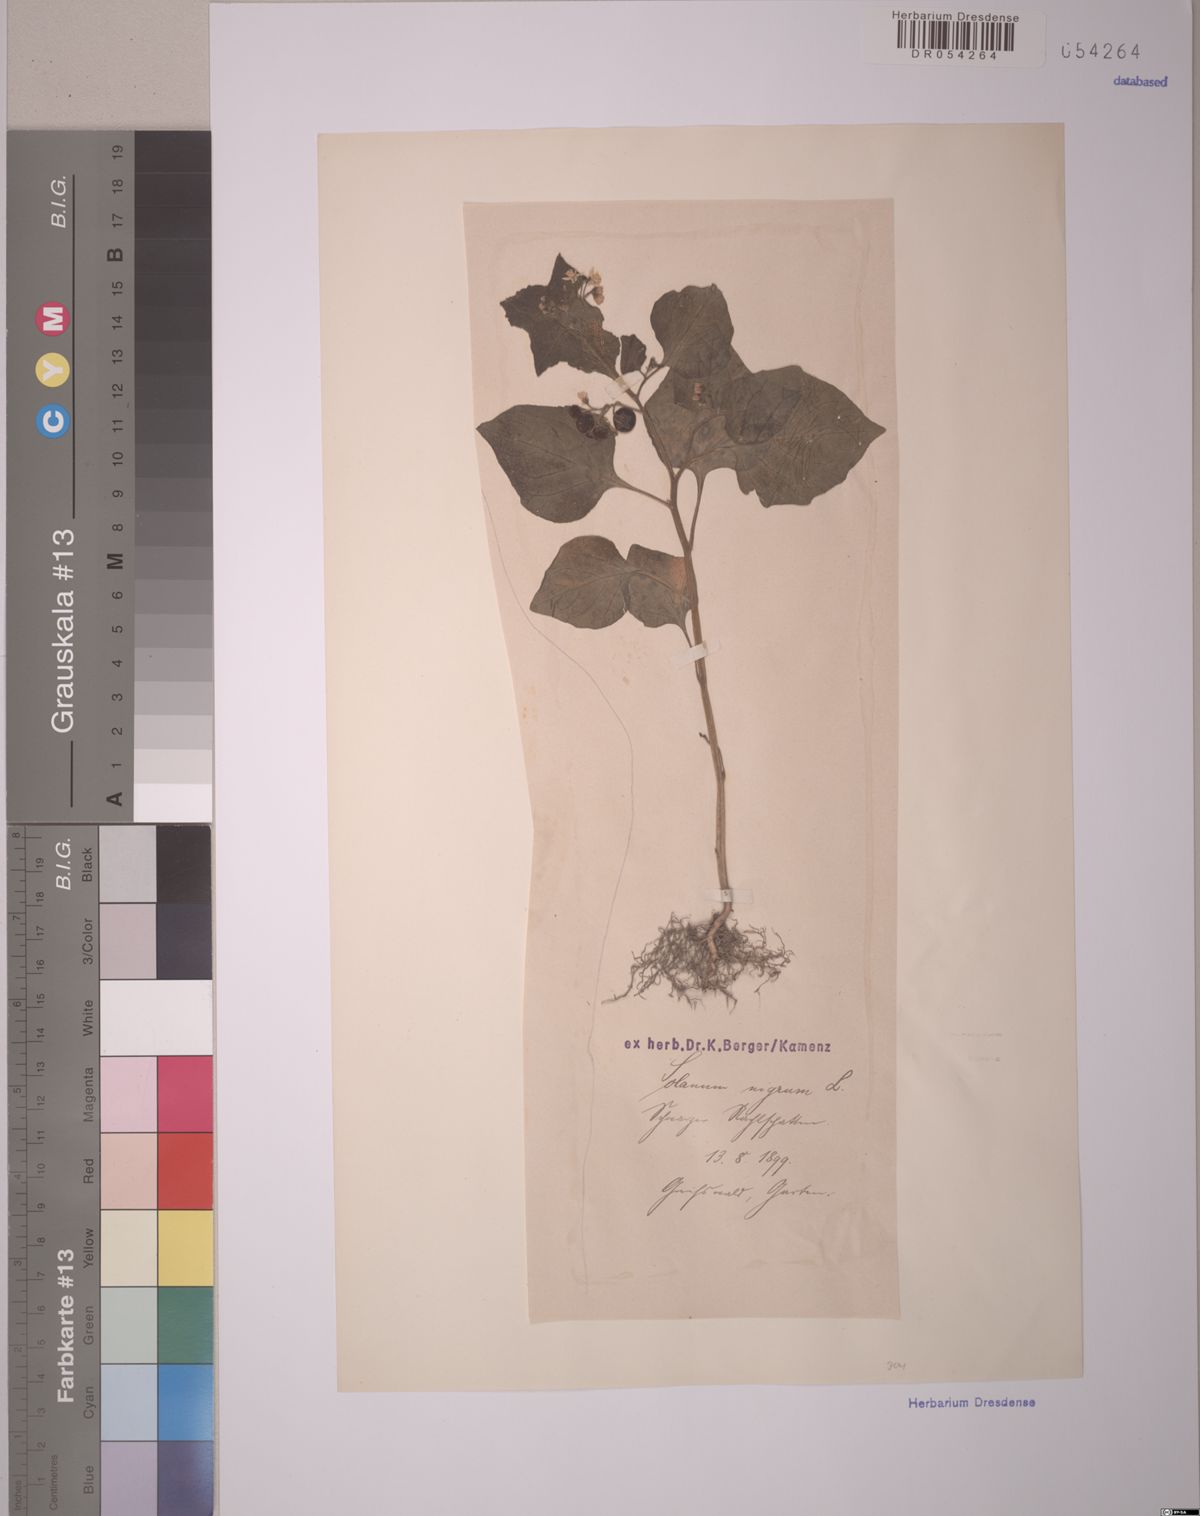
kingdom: Plantae
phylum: Tracheophyta
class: Magnoliopsida
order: Solanales
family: Solanaceae
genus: Solanum
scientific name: Solanum nigrum
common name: Black nightshade
